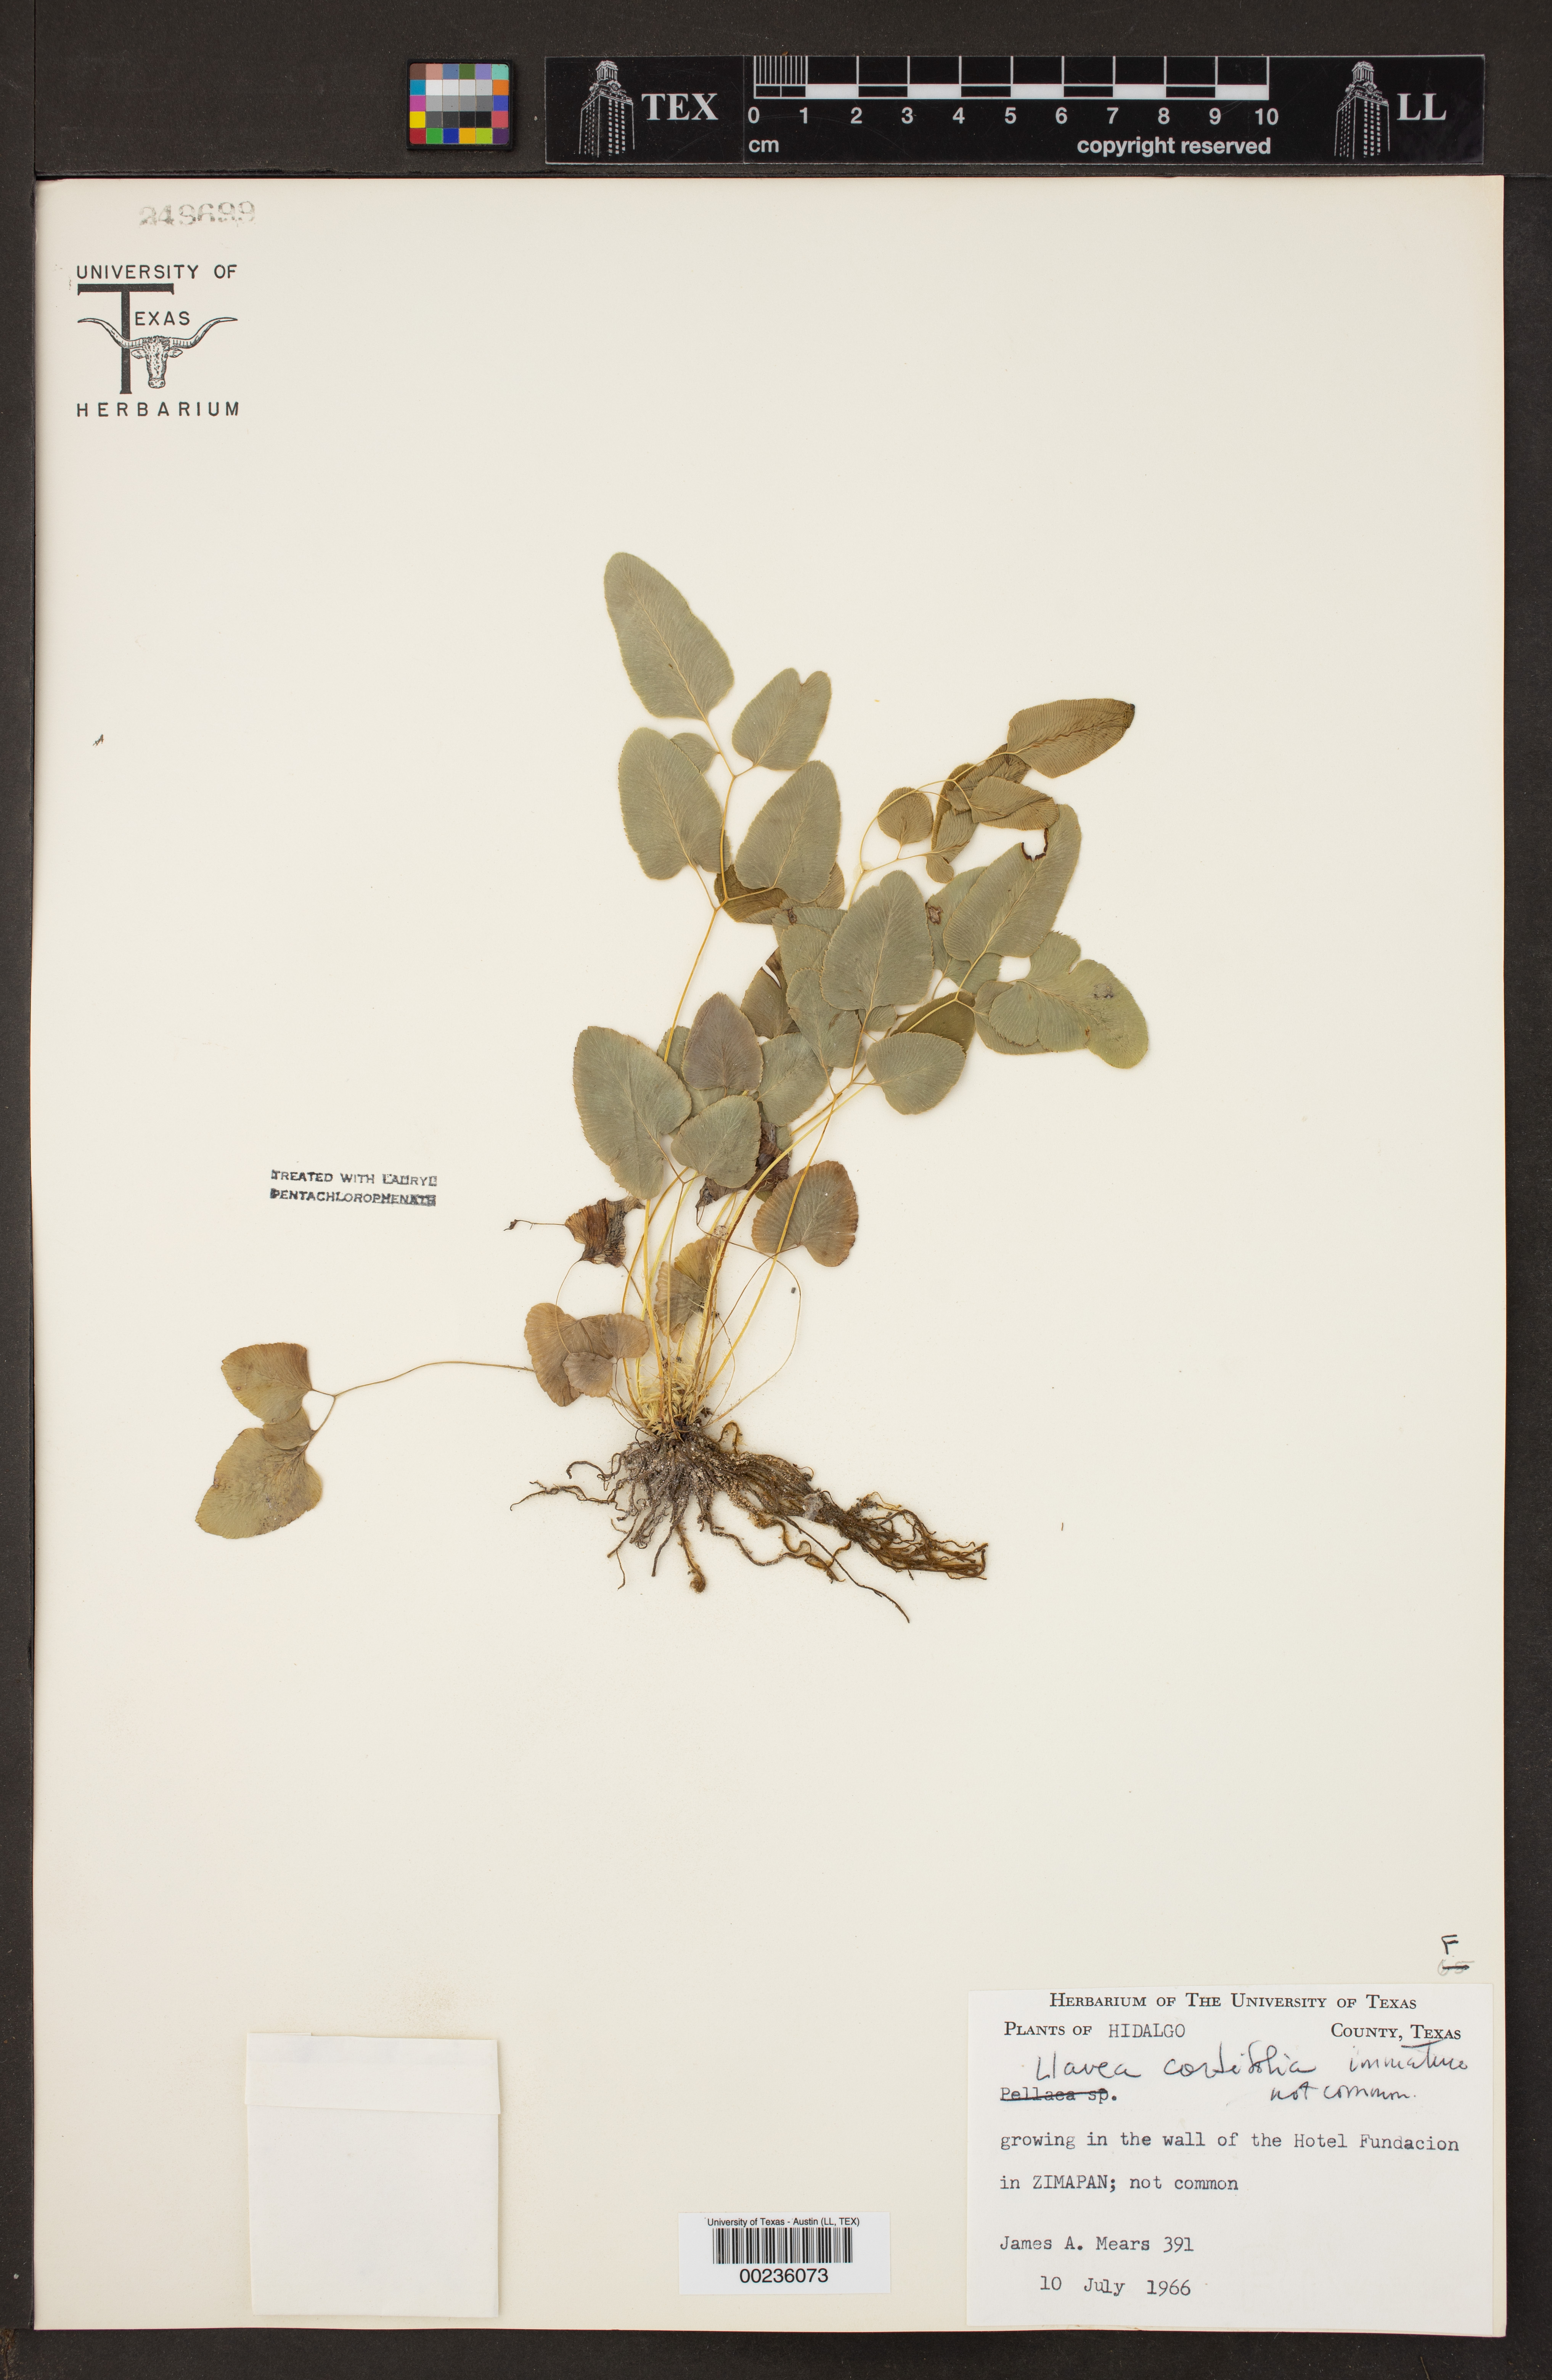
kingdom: Plantae
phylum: Tracheophyta
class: Polypodiopsida
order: Polypodiales
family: Pteridaceae
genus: Llavea
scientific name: Llavea cordifolia
